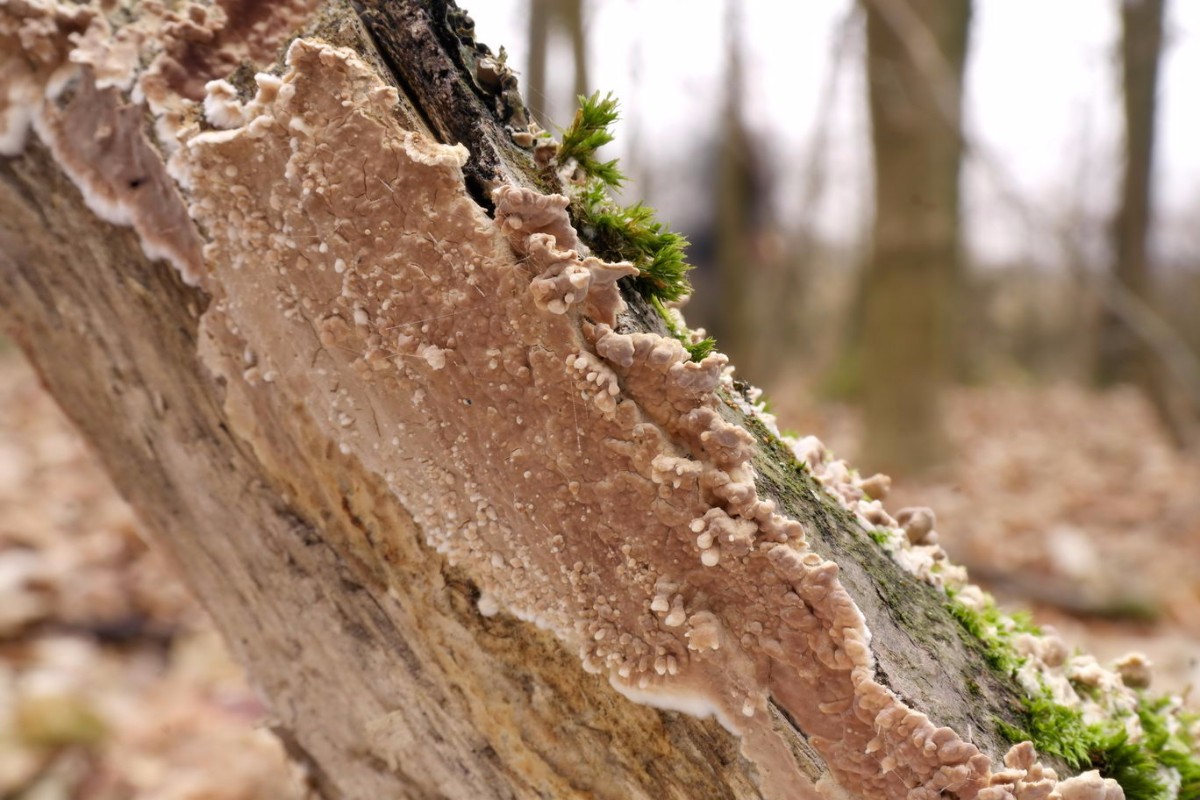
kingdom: Fungi
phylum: Basidiomycota
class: Agaricomycetes
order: Agaricales
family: Physalacriaceae
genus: Cylindrobasidium
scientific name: Cylindrobasidium evolvens
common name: sprækkehinde
